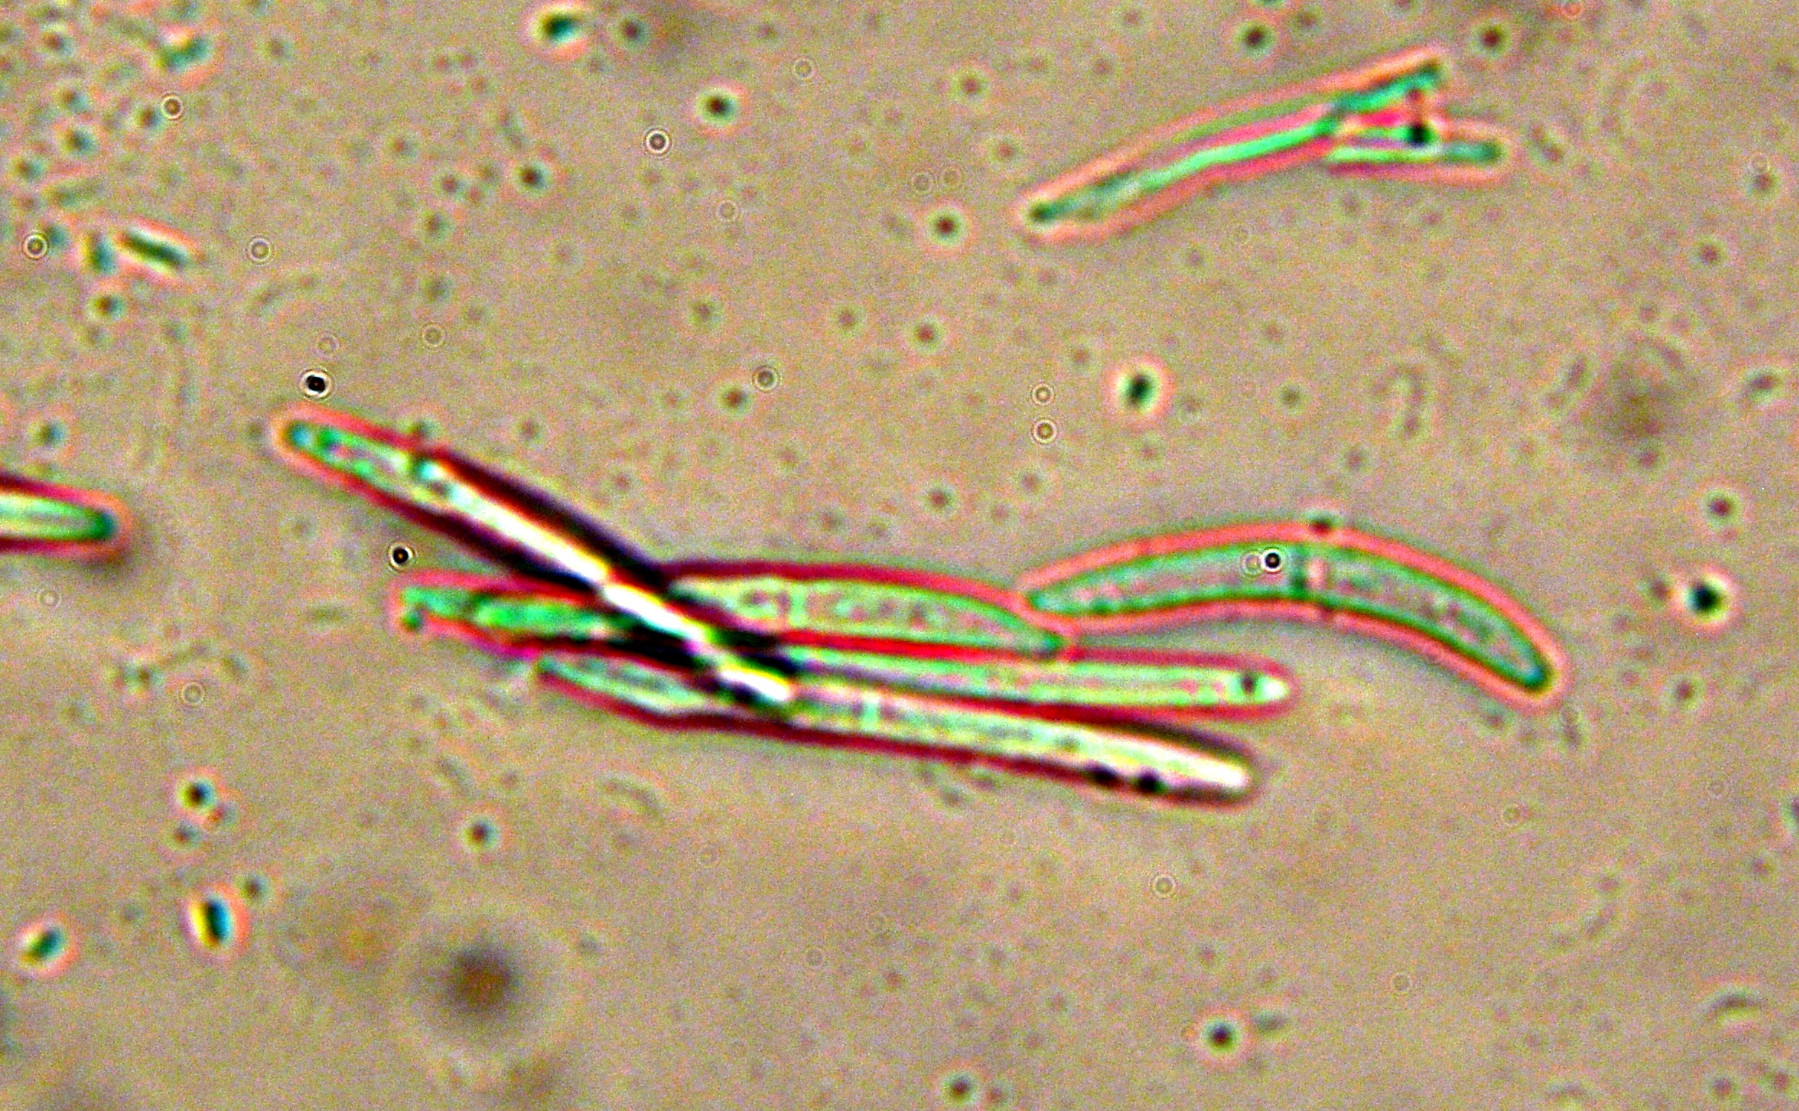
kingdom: Fungi
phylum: Ascomycota
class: Dothideomycetes
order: Capnodiales
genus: Septocyta
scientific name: Septocyta ruborum
